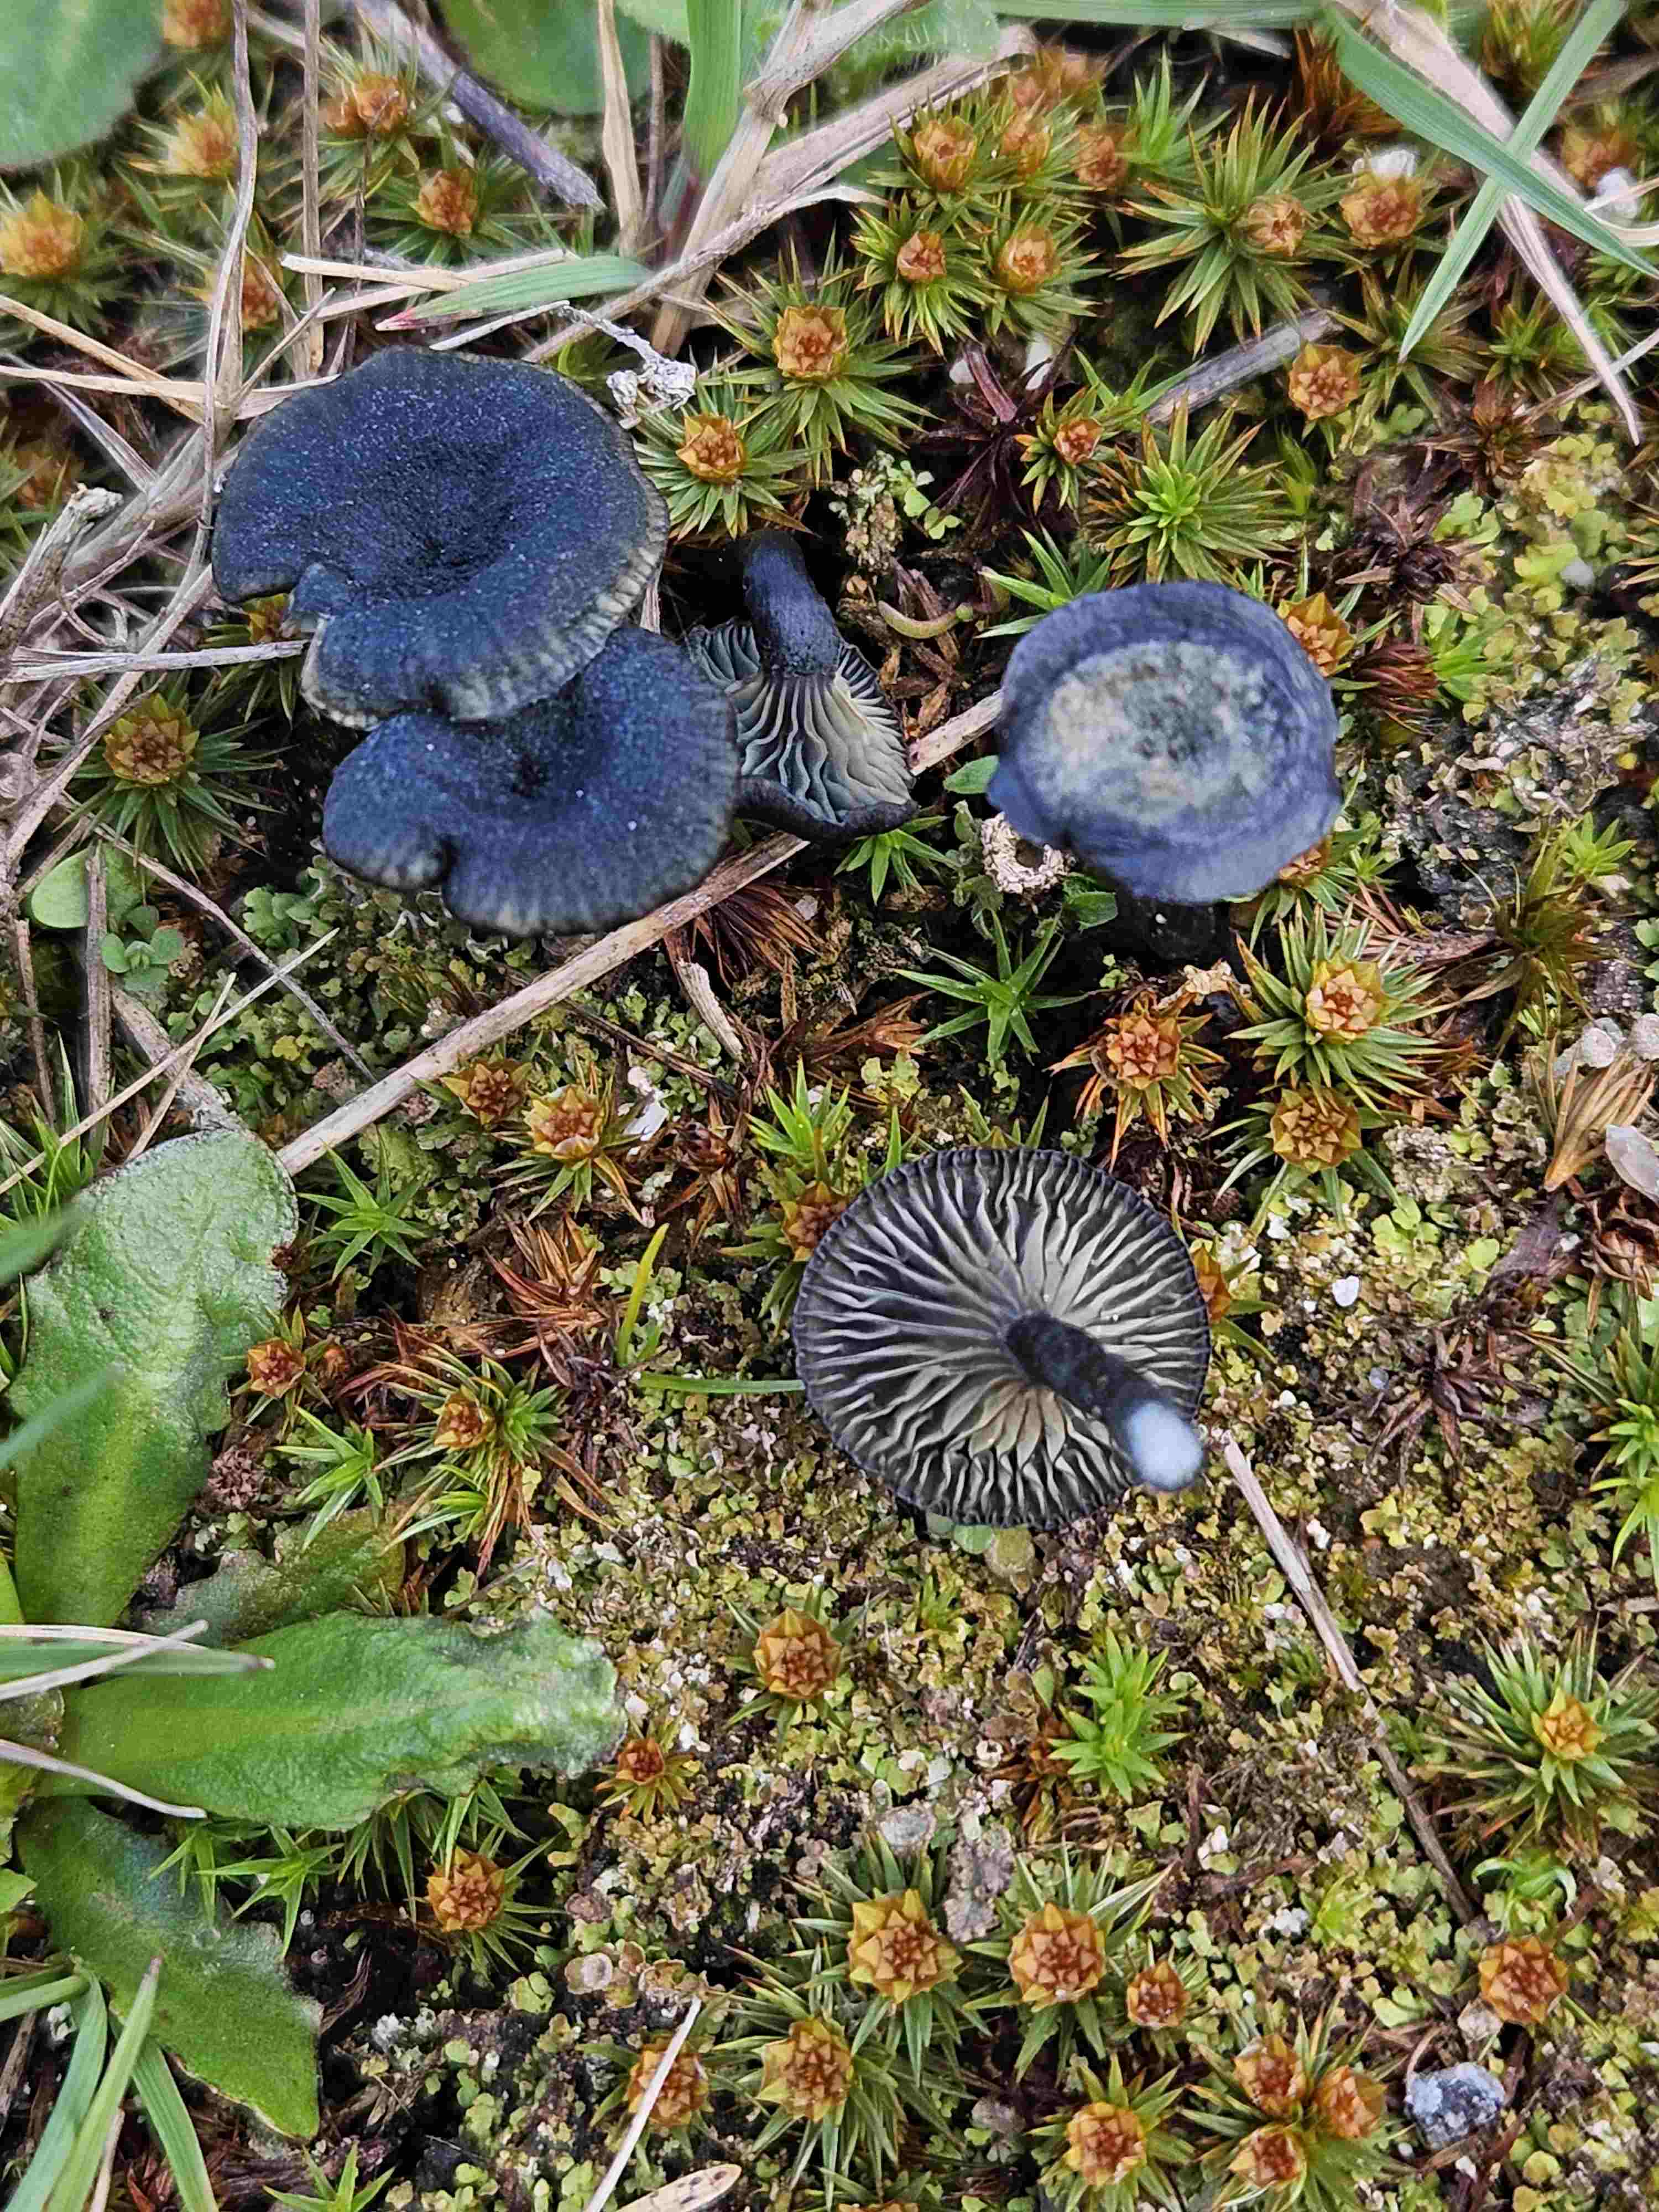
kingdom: Fungi
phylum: Basidiomycota
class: Agaricomycetes
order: Agaricales
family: Hygrophoraceae
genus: Arrhenia
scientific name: Arrhenia chlorocyanea
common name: blågrøn fontænehat
